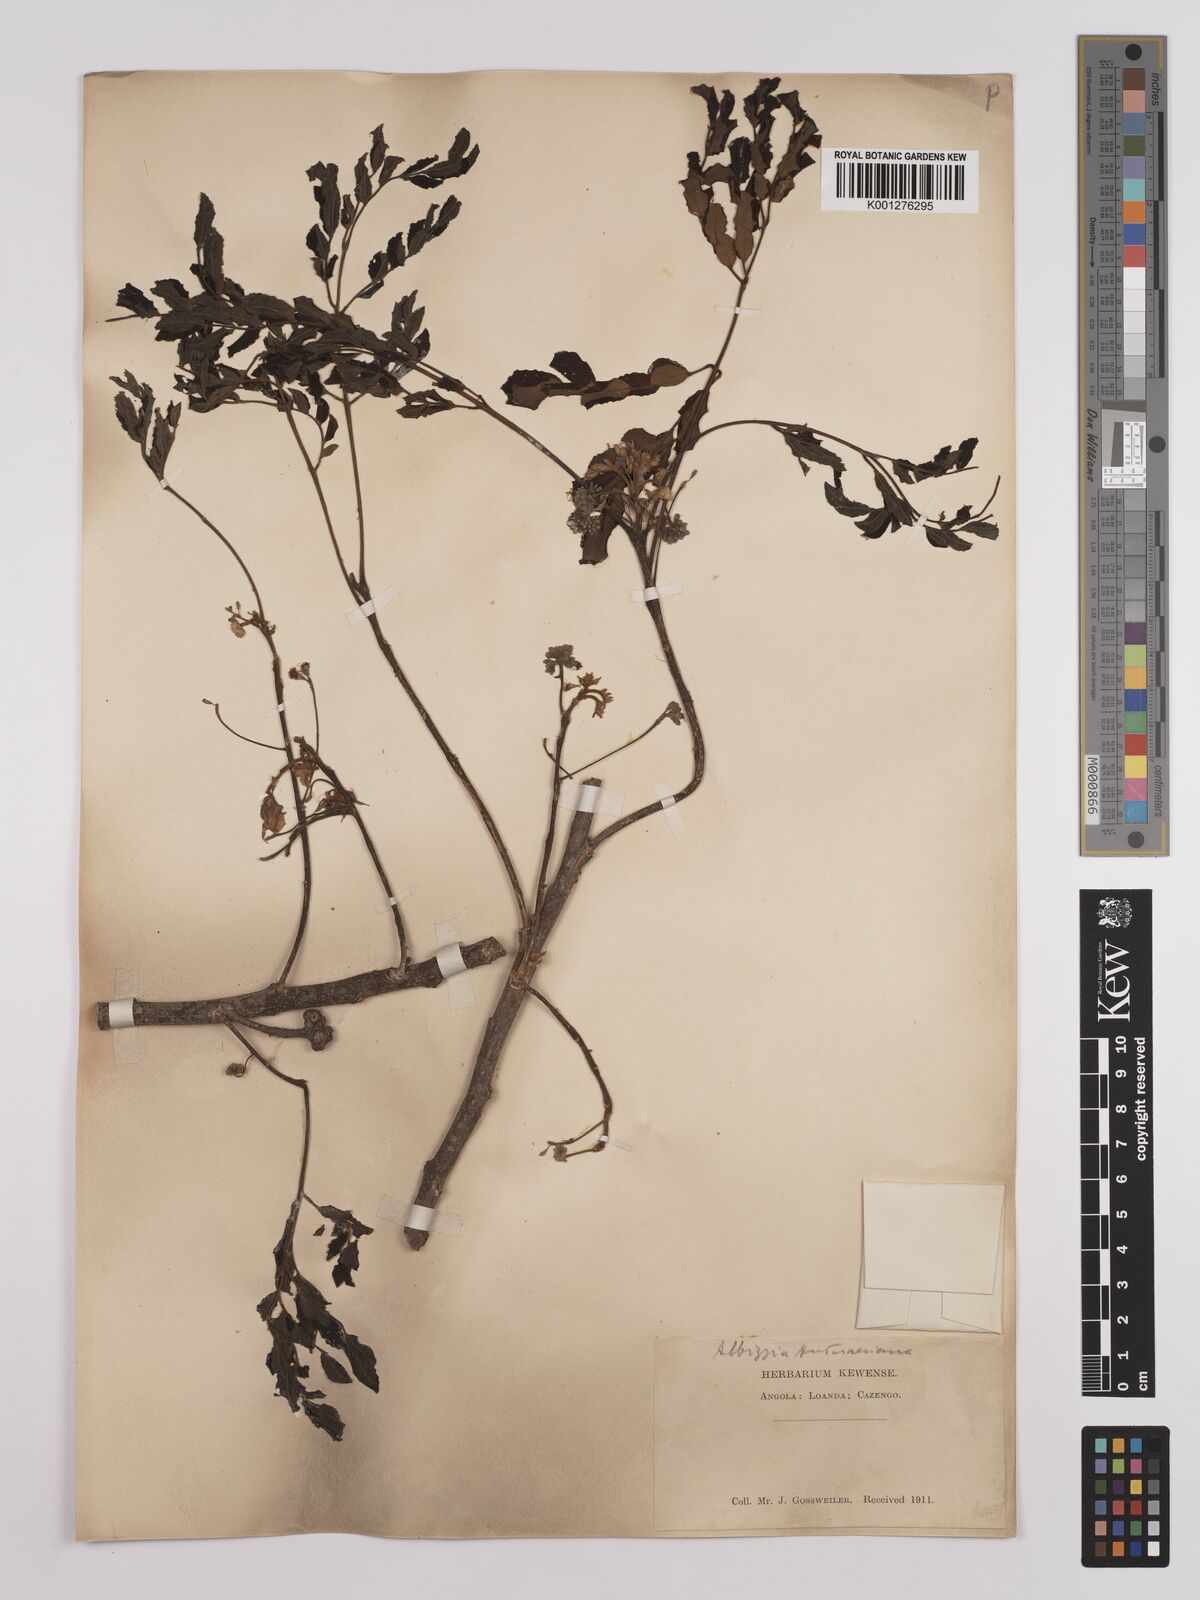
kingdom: Plantae
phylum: Tracheophyta
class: Magnoliopsida
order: Fabales
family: Fabaceae
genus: Albizia
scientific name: Albizia antunesiana
